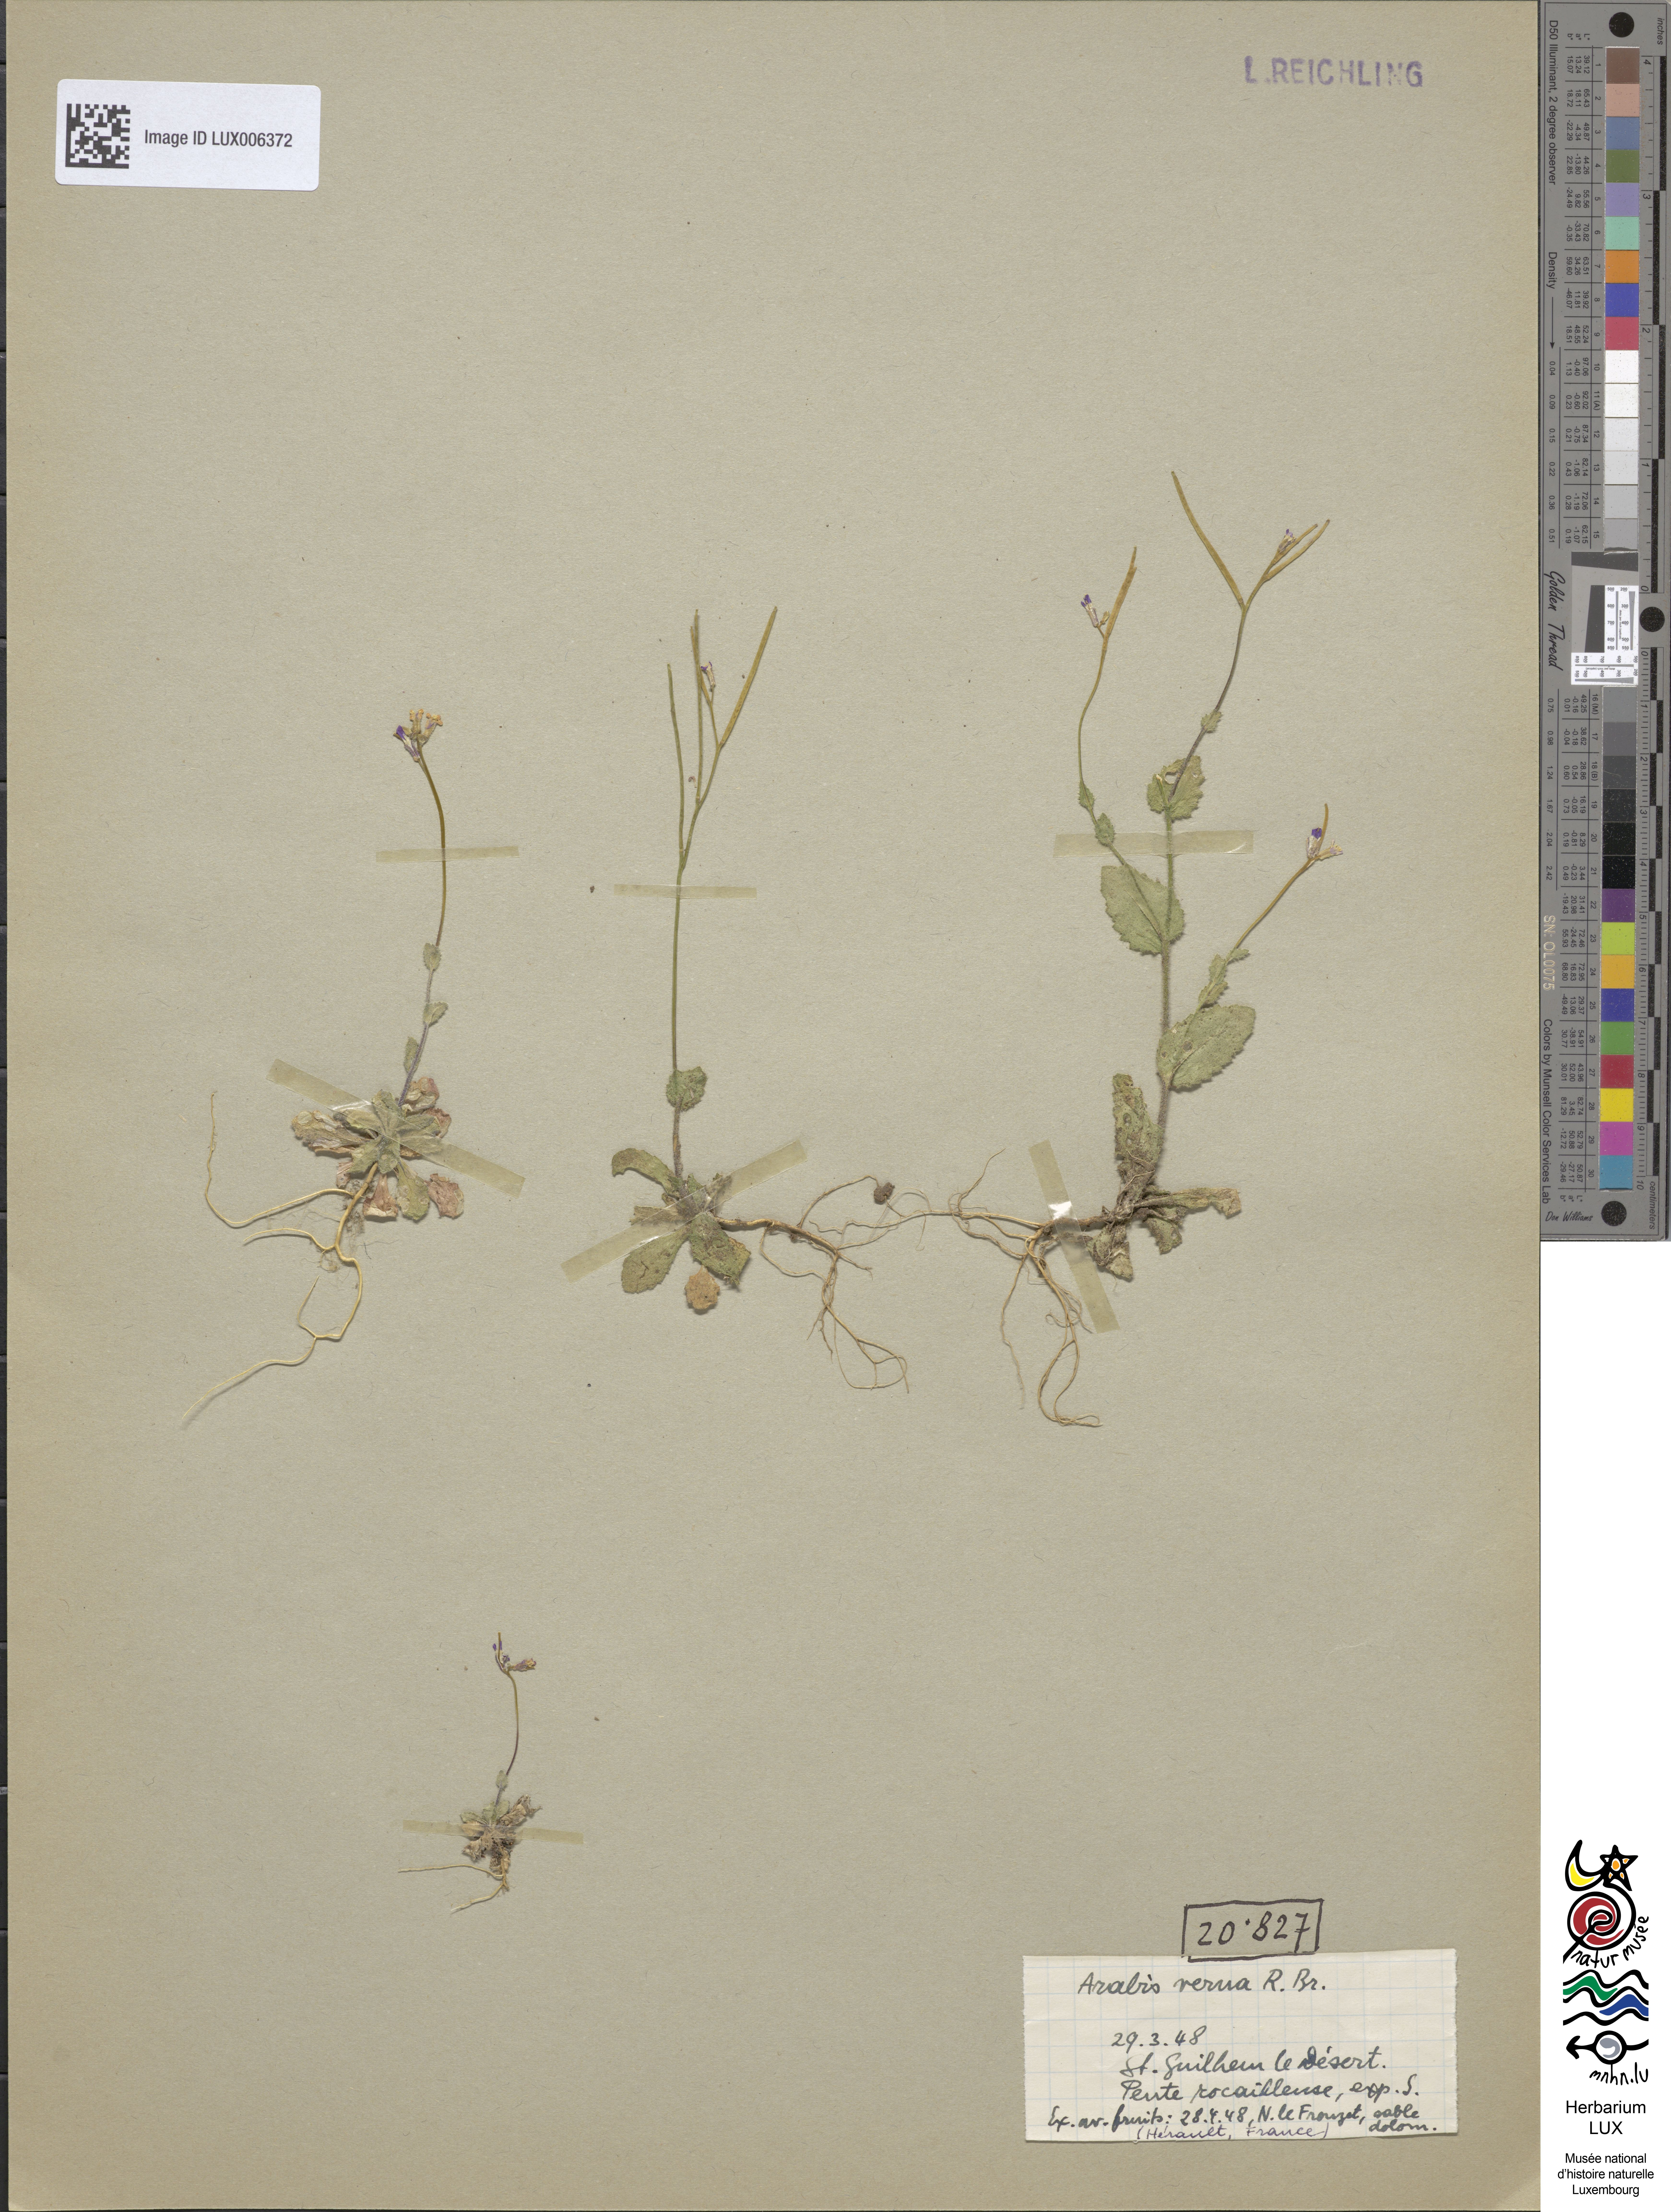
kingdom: Plantae
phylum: Tracheophyta
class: Magnoliopsida
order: Brassicales
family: Brassicaceae
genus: Arabis
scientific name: Arabis verna
